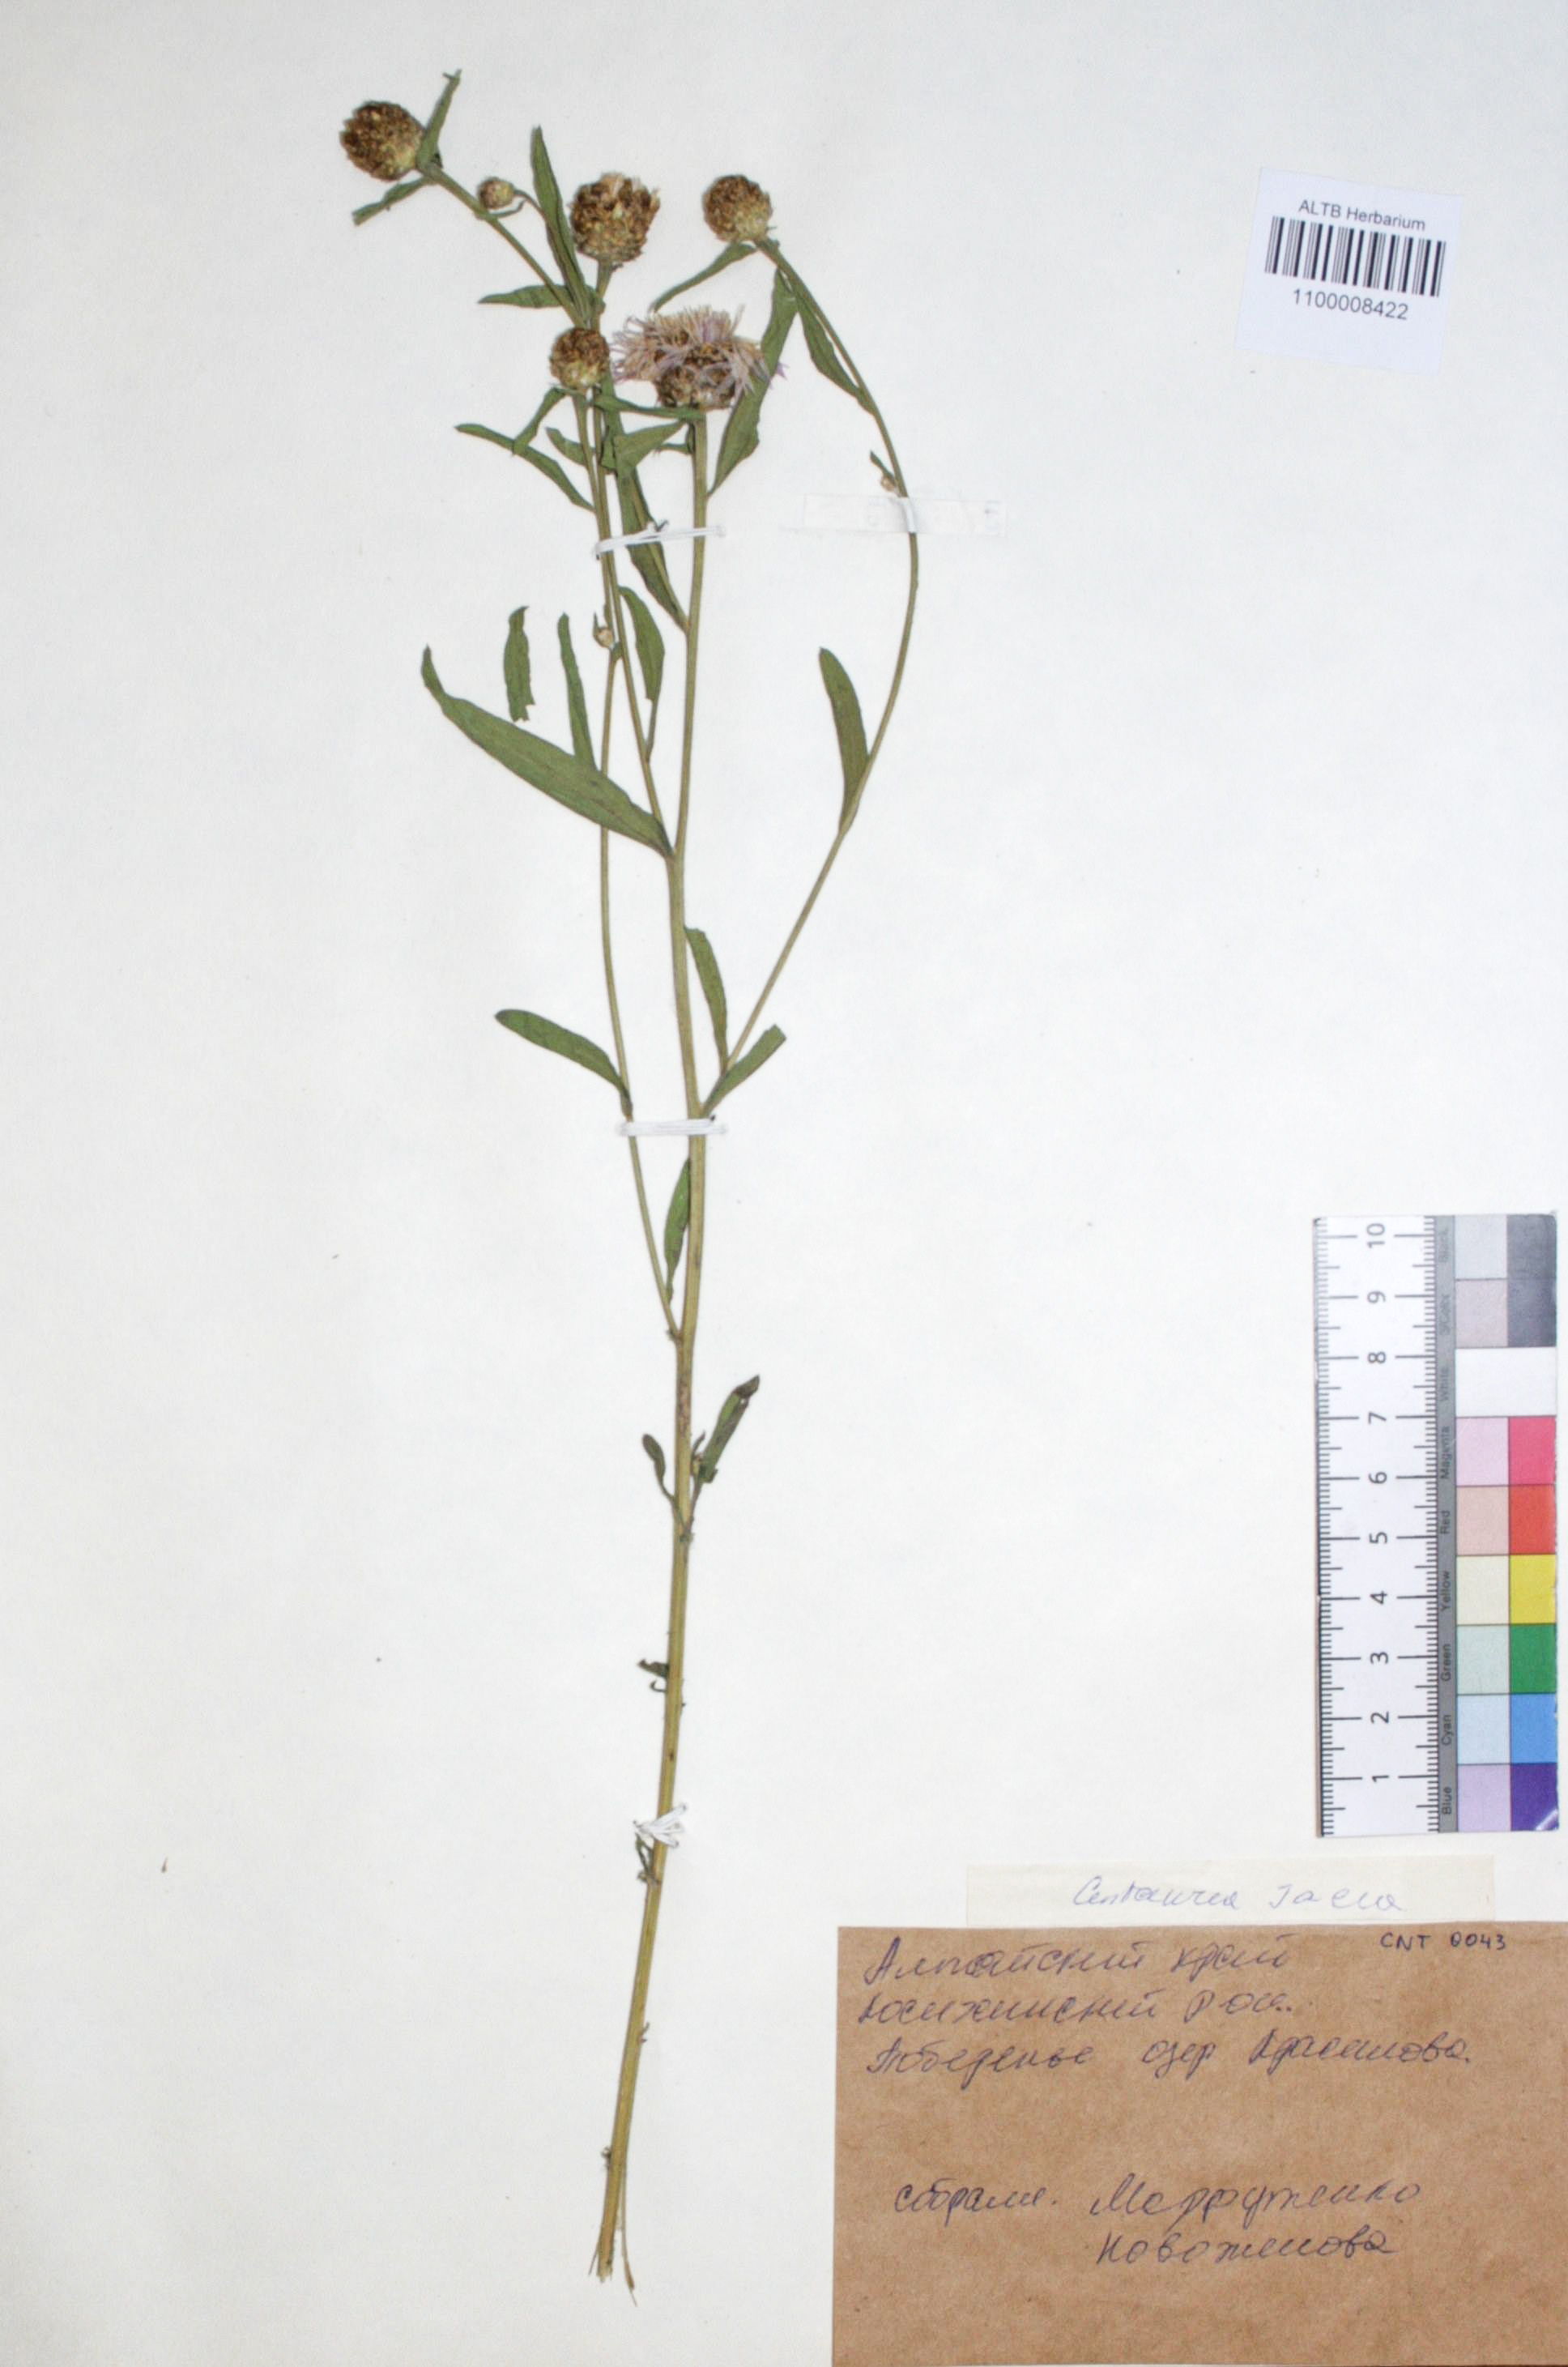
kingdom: Plantae
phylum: Tracheophyta
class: Magnoliopsida
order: Asterales
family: Asteraceae
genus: Centaurea
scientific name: Centaurea jacea
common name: Brown knapweed
